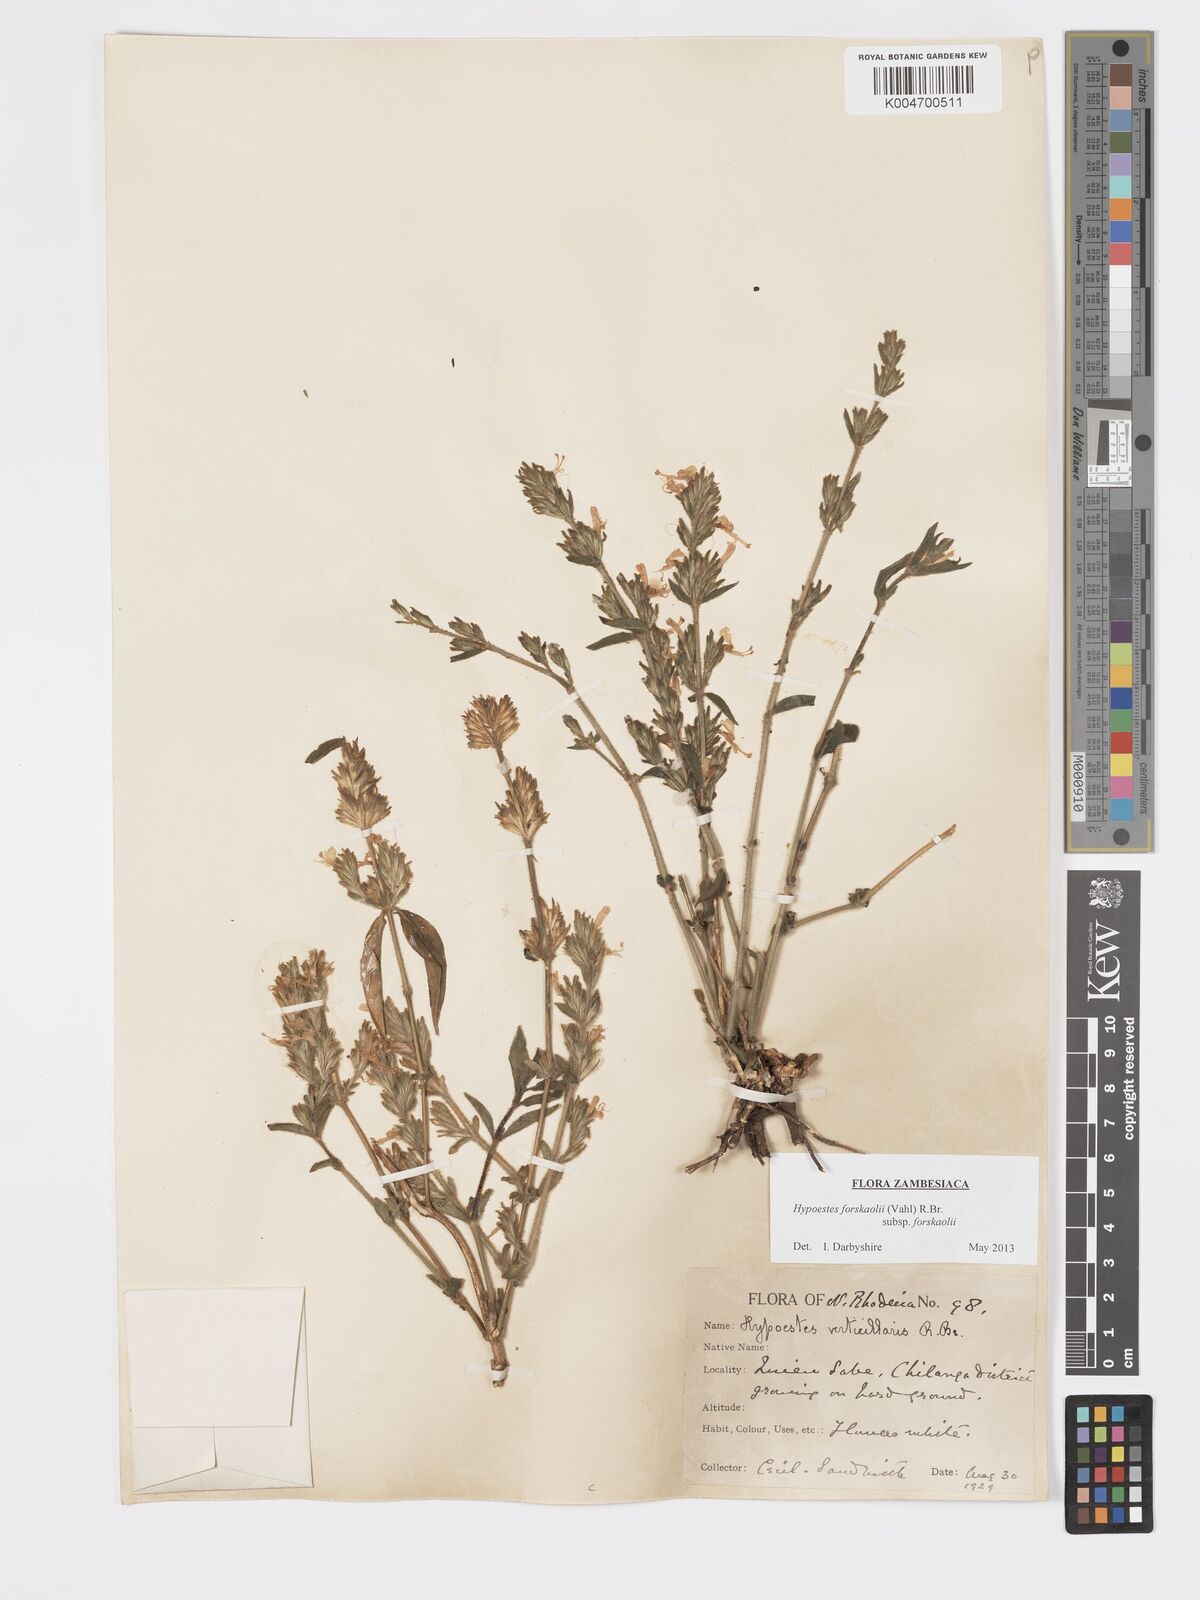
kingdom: Plantae
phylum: Tracheophyta
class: Magnoliopsida
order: Lamiales
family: Acanthaceae
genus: Hypoestes
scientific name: Hypoestes forskaolii
